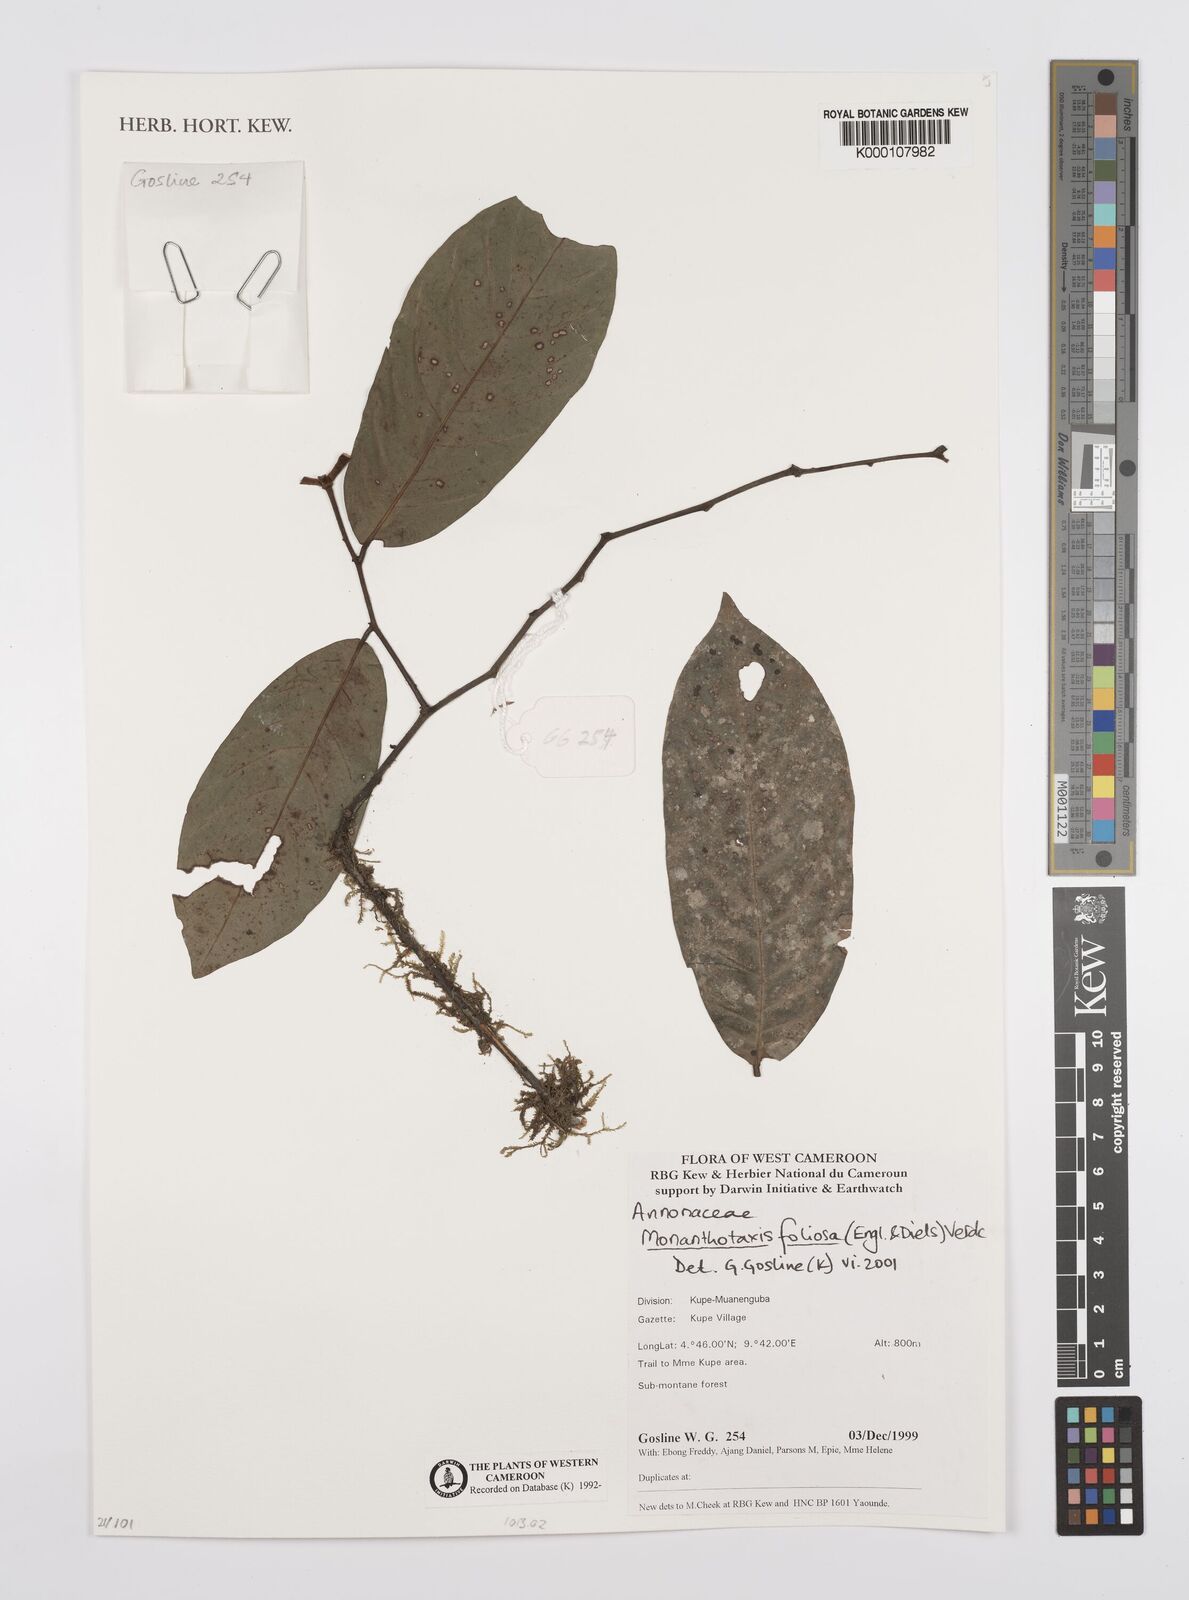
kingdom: Plantae
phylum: Tracheophyta
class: Magnoliopsida
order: Magnoliales
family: Annonaceae
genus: Monanthotaxis
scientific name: Monanthotaxis foliosa
